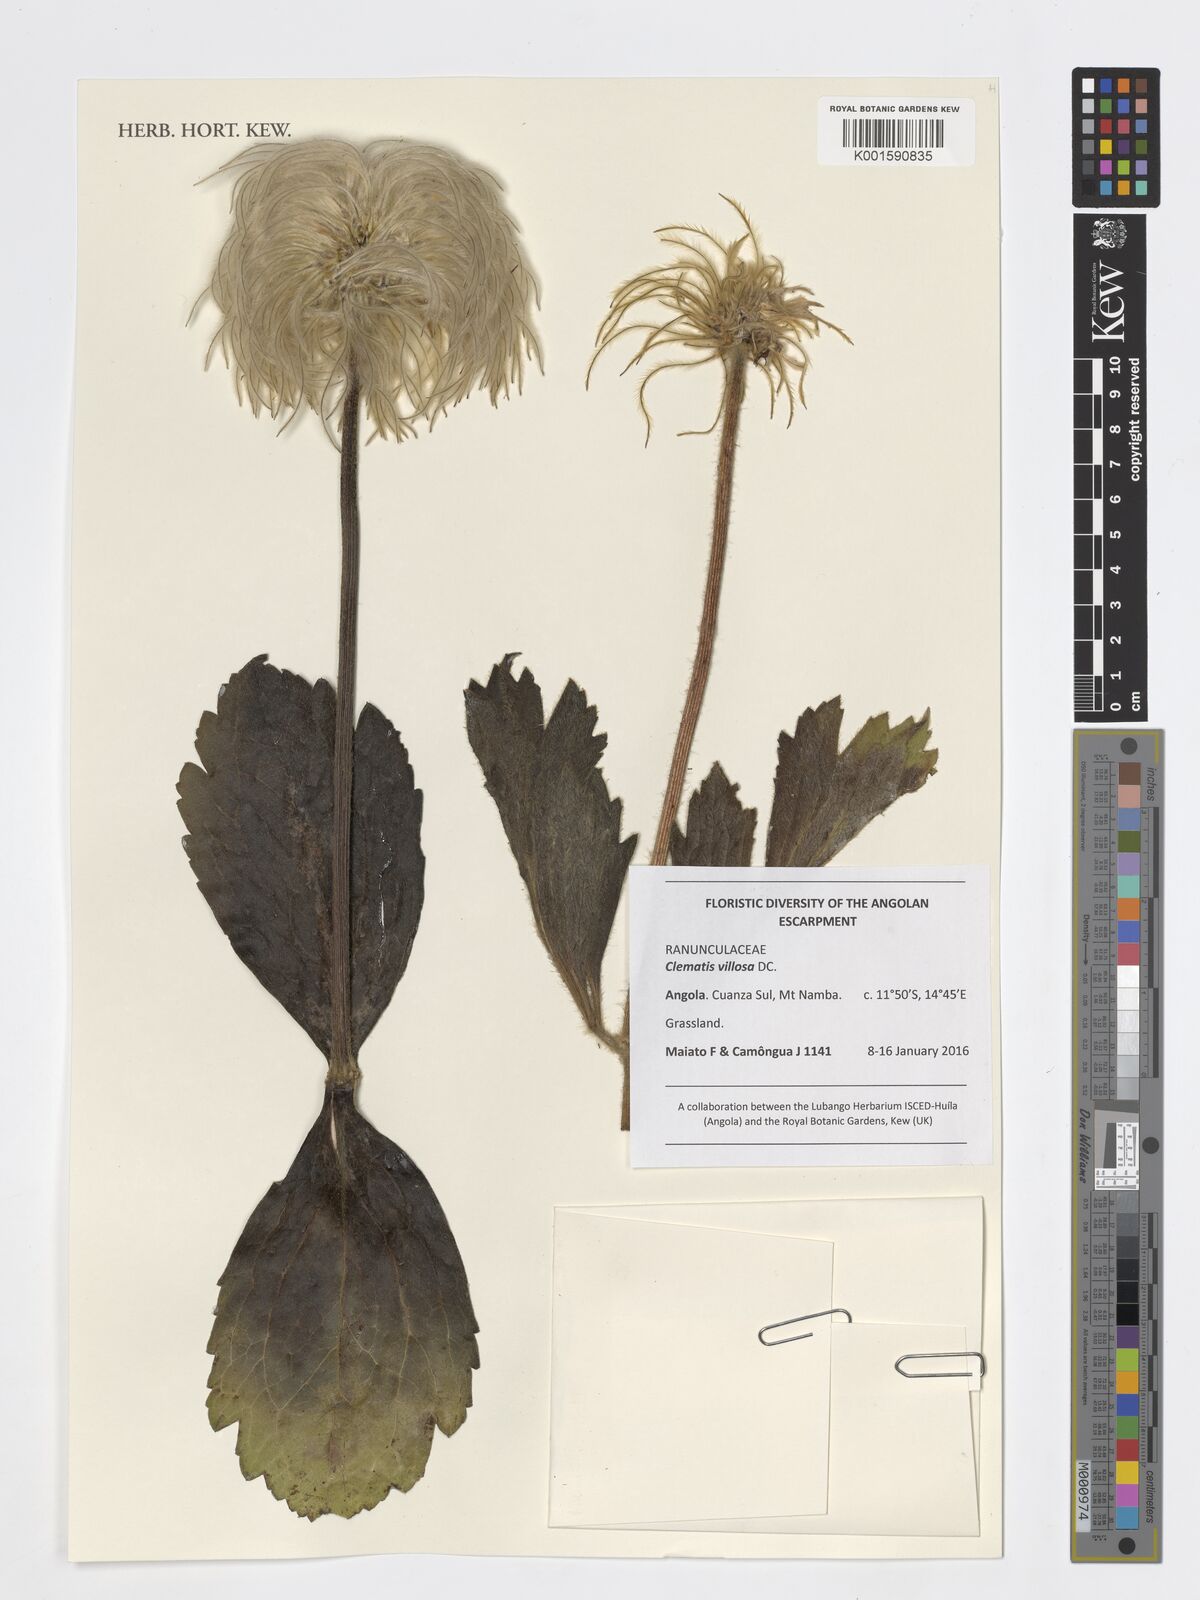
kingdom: Plantae
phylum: Tracheophyta
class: Magnoliopsida
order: Ranunculales
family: Ranunculaceae
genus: Clematis
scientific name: Clematis villosa
